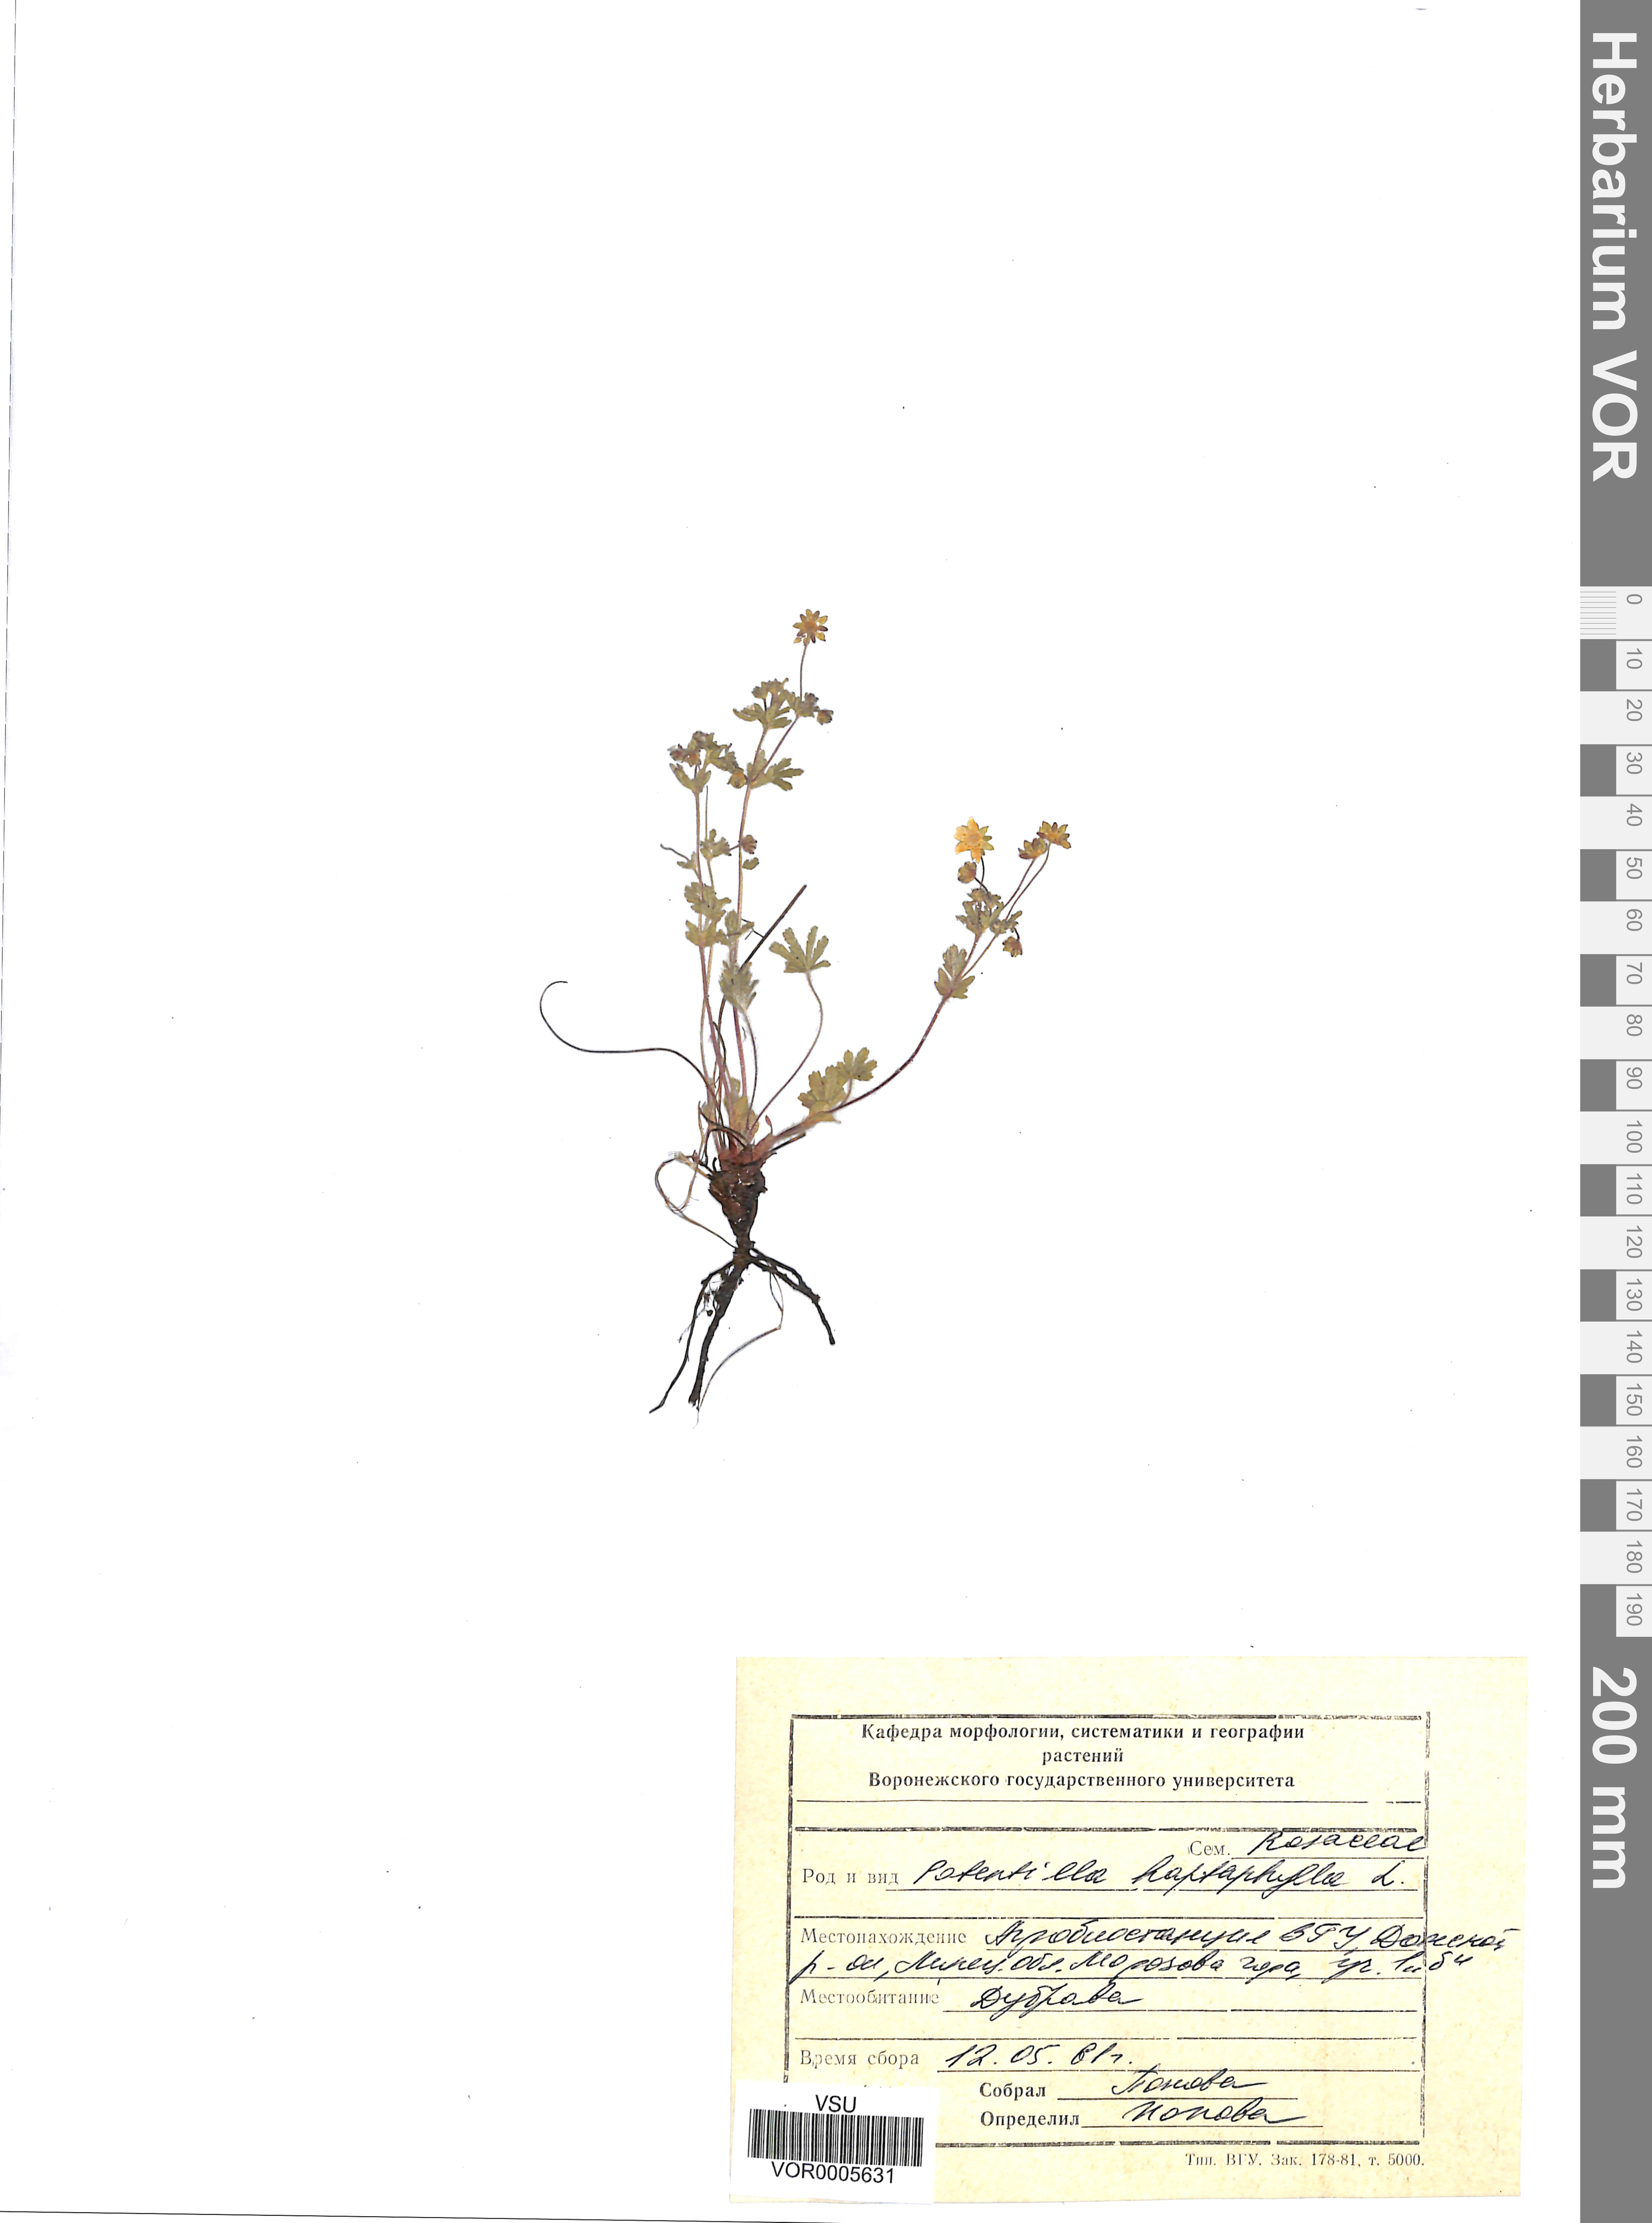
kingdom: Plantae
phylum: Tracheophyta
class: Magnoliopsida
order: Rosales
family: Rosaceae
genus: Potentilla
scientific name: Potentilla heptaphylla
